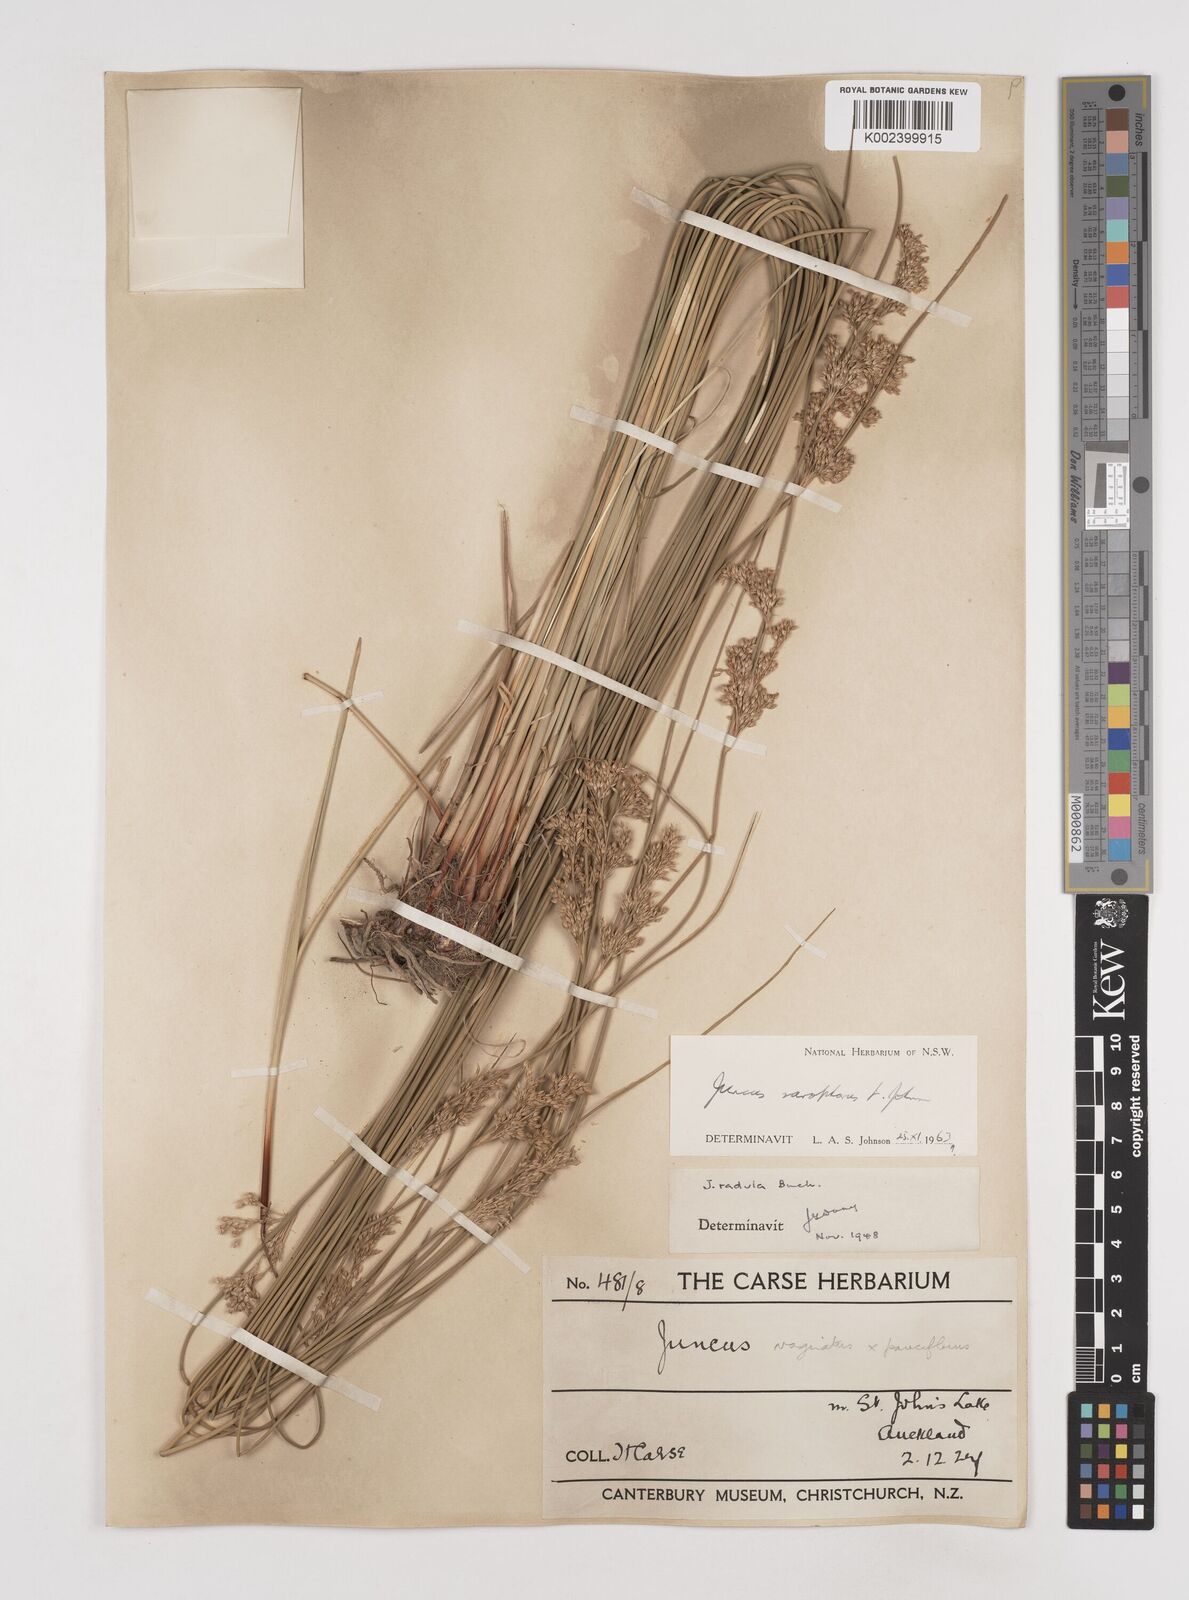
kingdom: Plantae
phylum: Tracheophyta
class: Liliopsida
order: Poales
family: Juncaceae
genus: Juncus
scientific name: Juncus sarophorus
